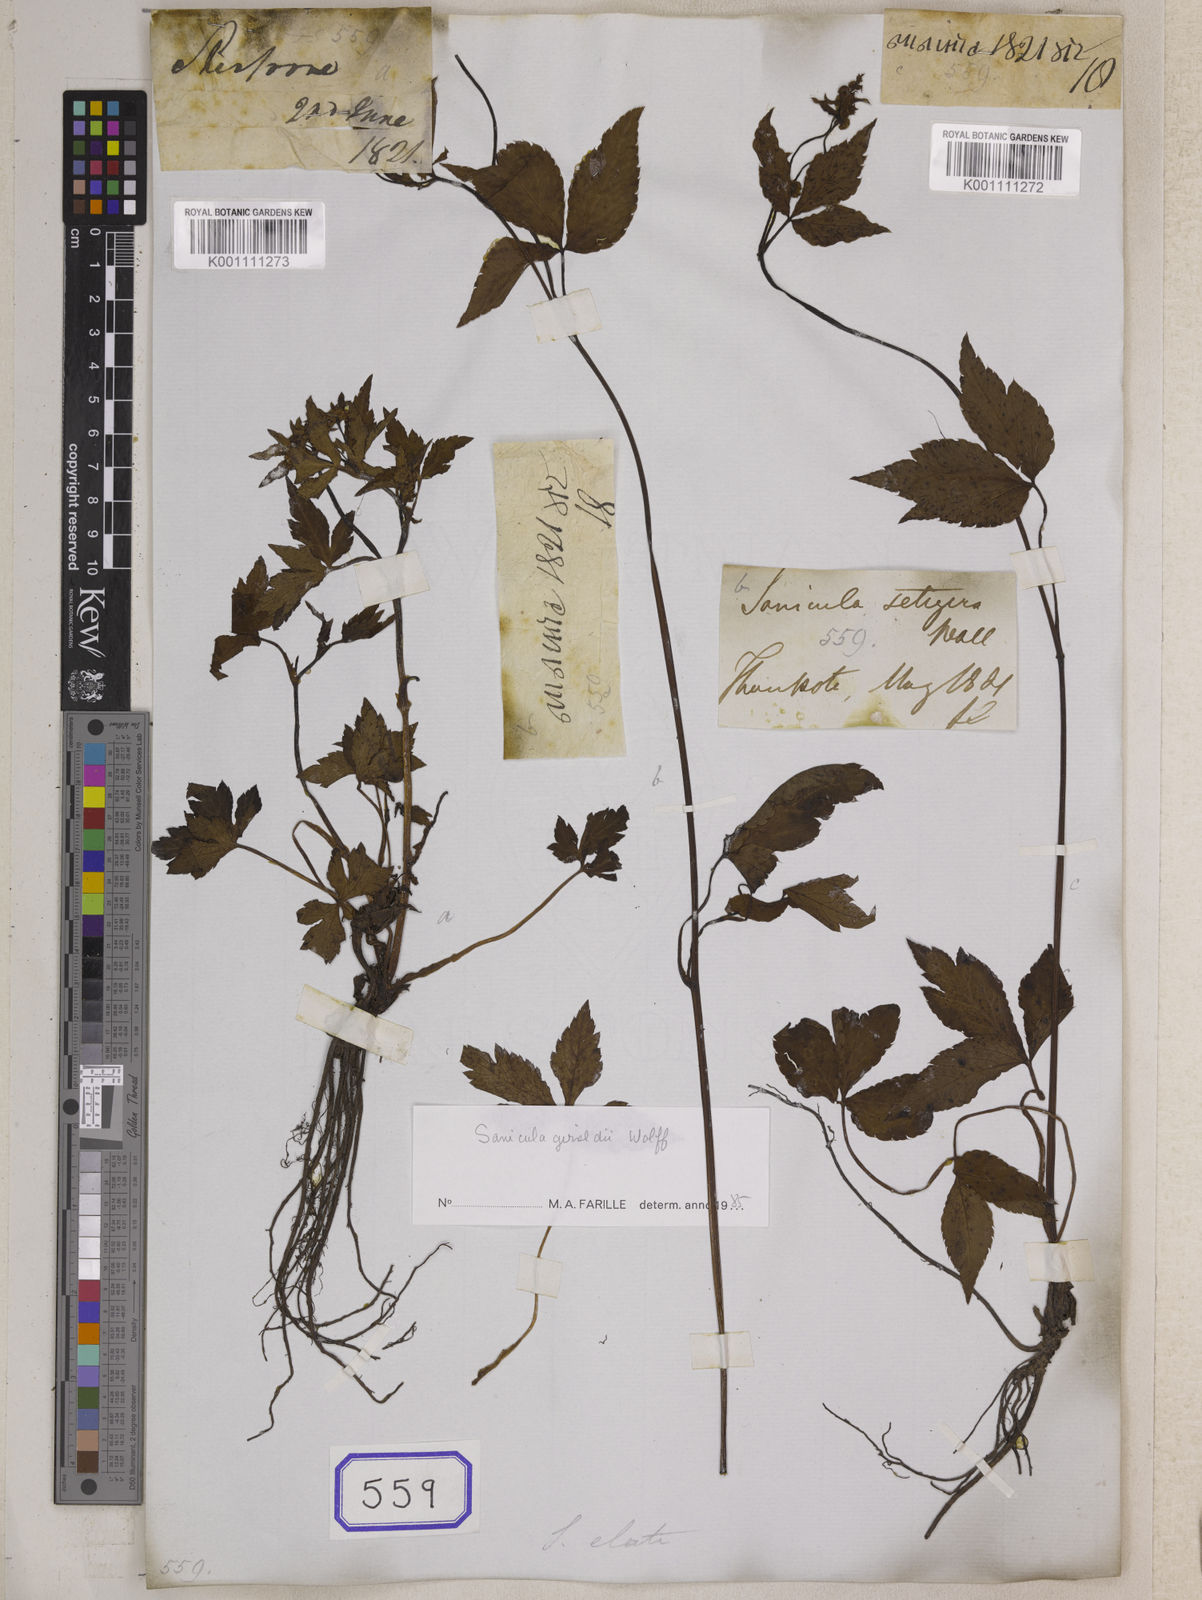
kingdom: Plantae
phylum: Tracheophyta
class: Magnoliopsida
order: Apiales
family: Apiaceae
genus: Sanicula
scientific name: Sanicula elata
